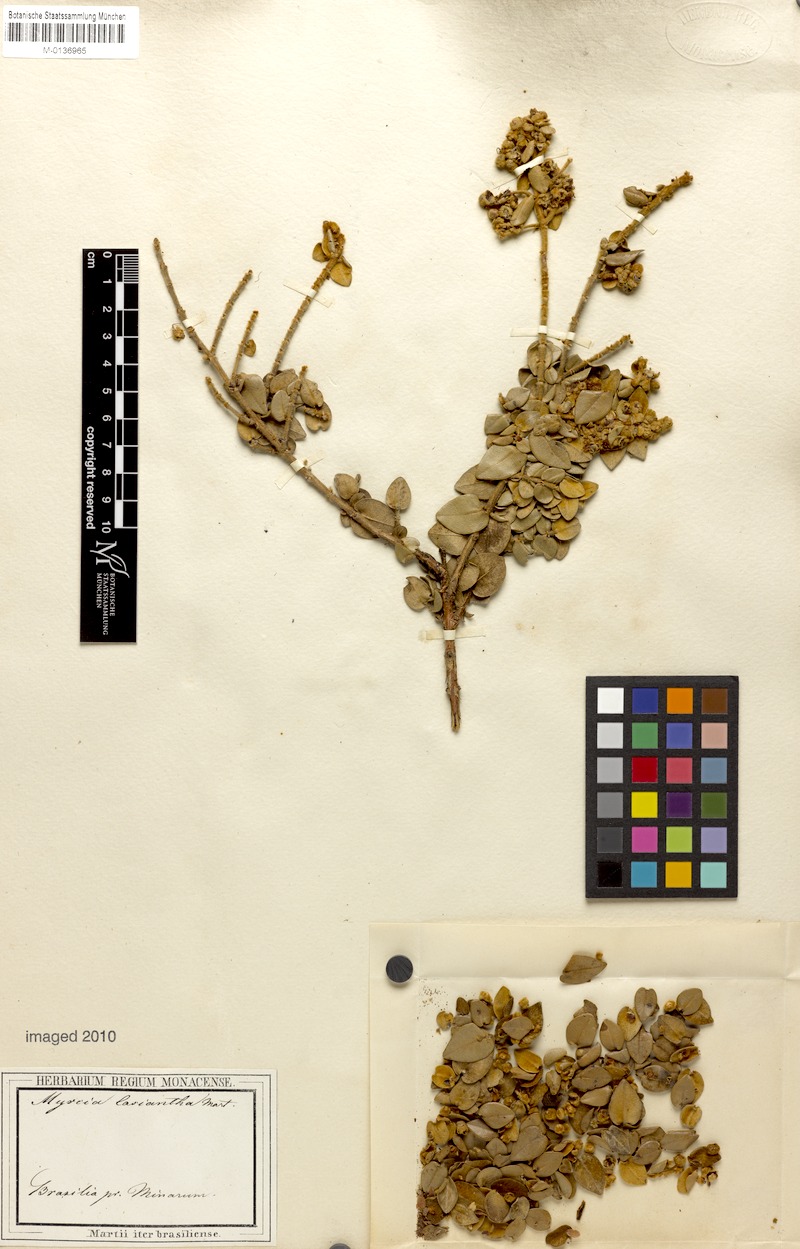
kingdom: Plantae
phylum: Tracheophyta
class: Magnoliopsida
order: Myrtales
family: Myrtaceae
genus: Myrcia
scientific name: Myrcia lasiantha
